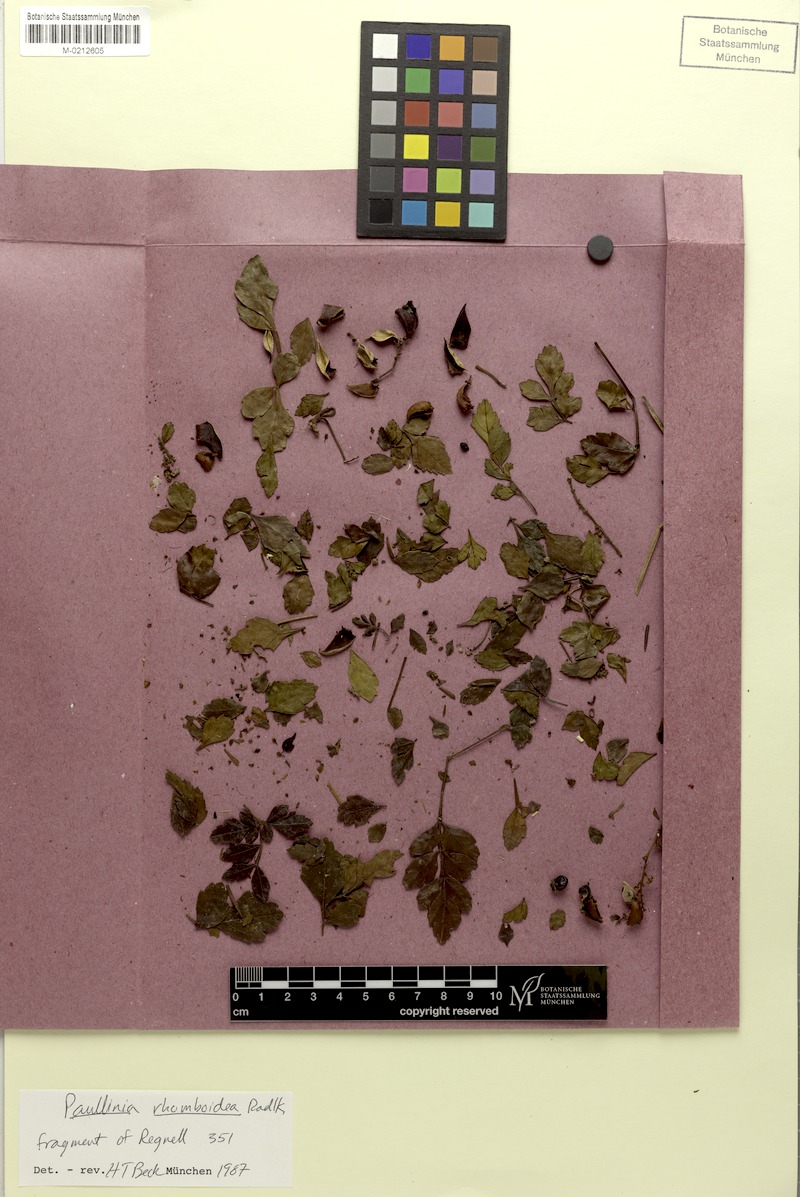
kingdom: Plantae
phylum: Tracheophyta
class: Magnoliopsida
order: Sapindales
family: Sapindaceae
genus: Paullinia
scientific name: Paullinia rhomboidea
